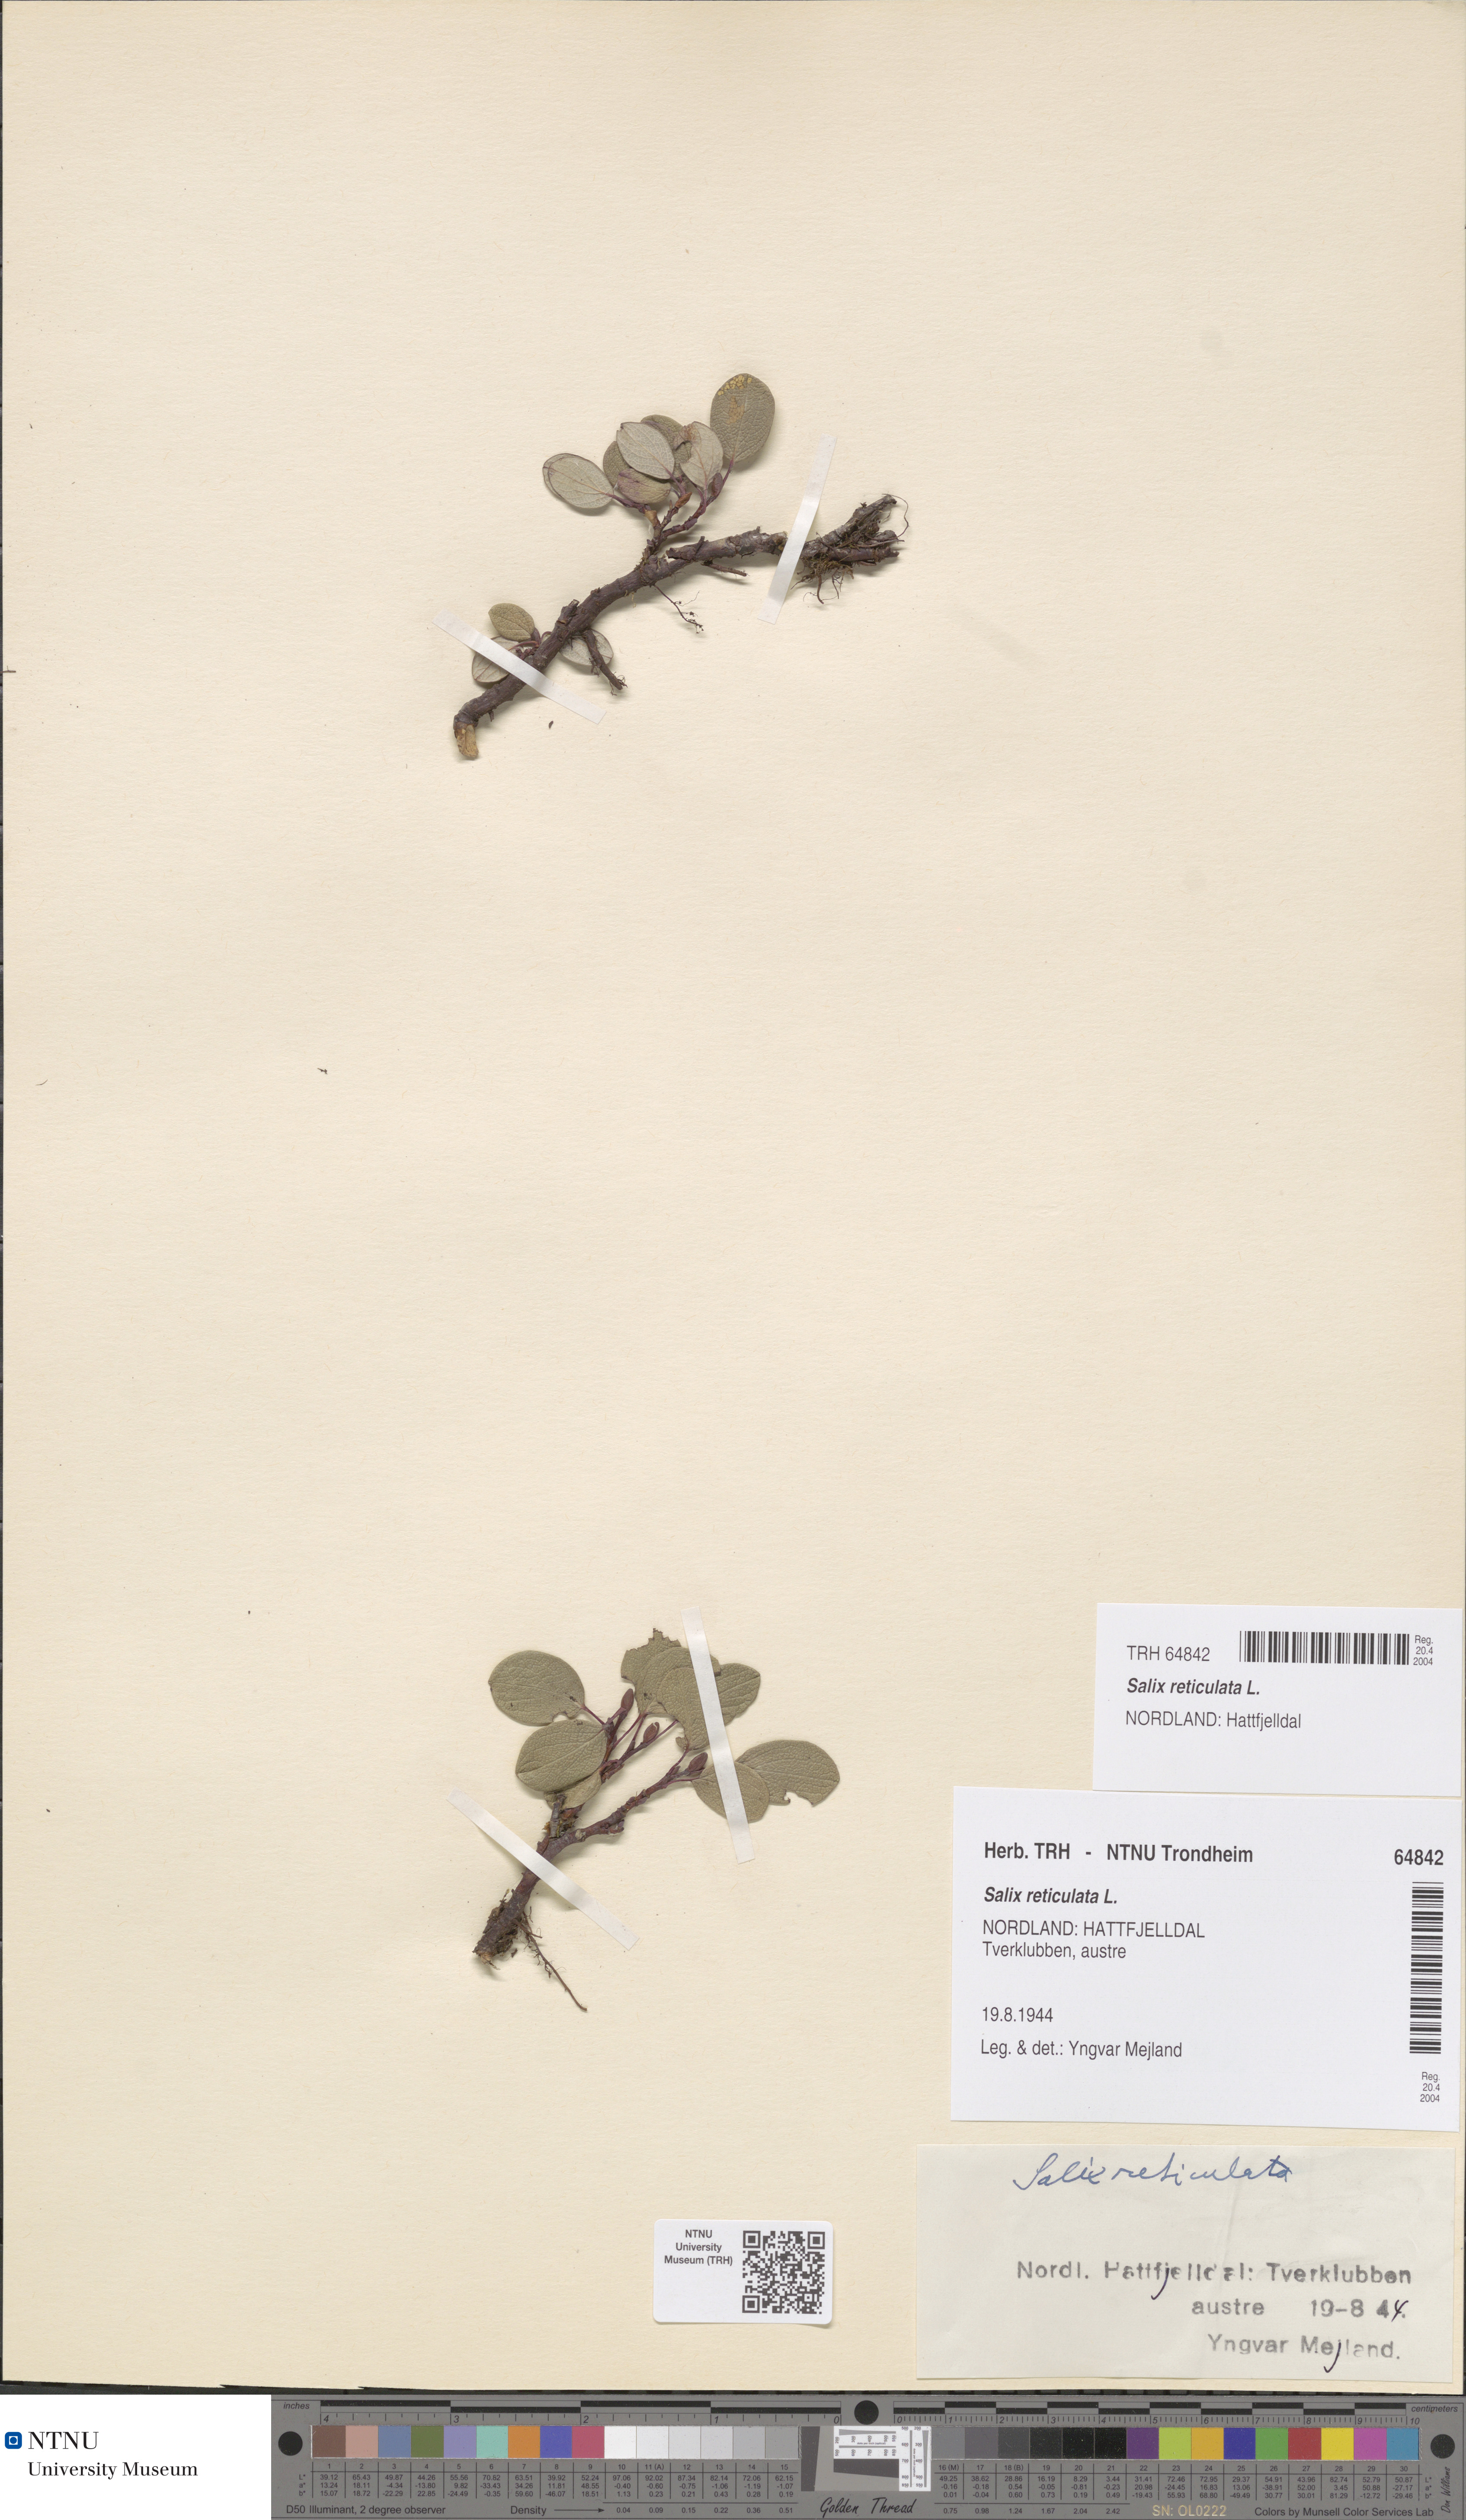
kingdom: Plantae
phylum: Tracheophyta
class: Magnoliopsida
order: Malpighiales
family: Salicaceae
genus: Salix
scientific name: Salix reticulata
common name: Net-leaved willow
